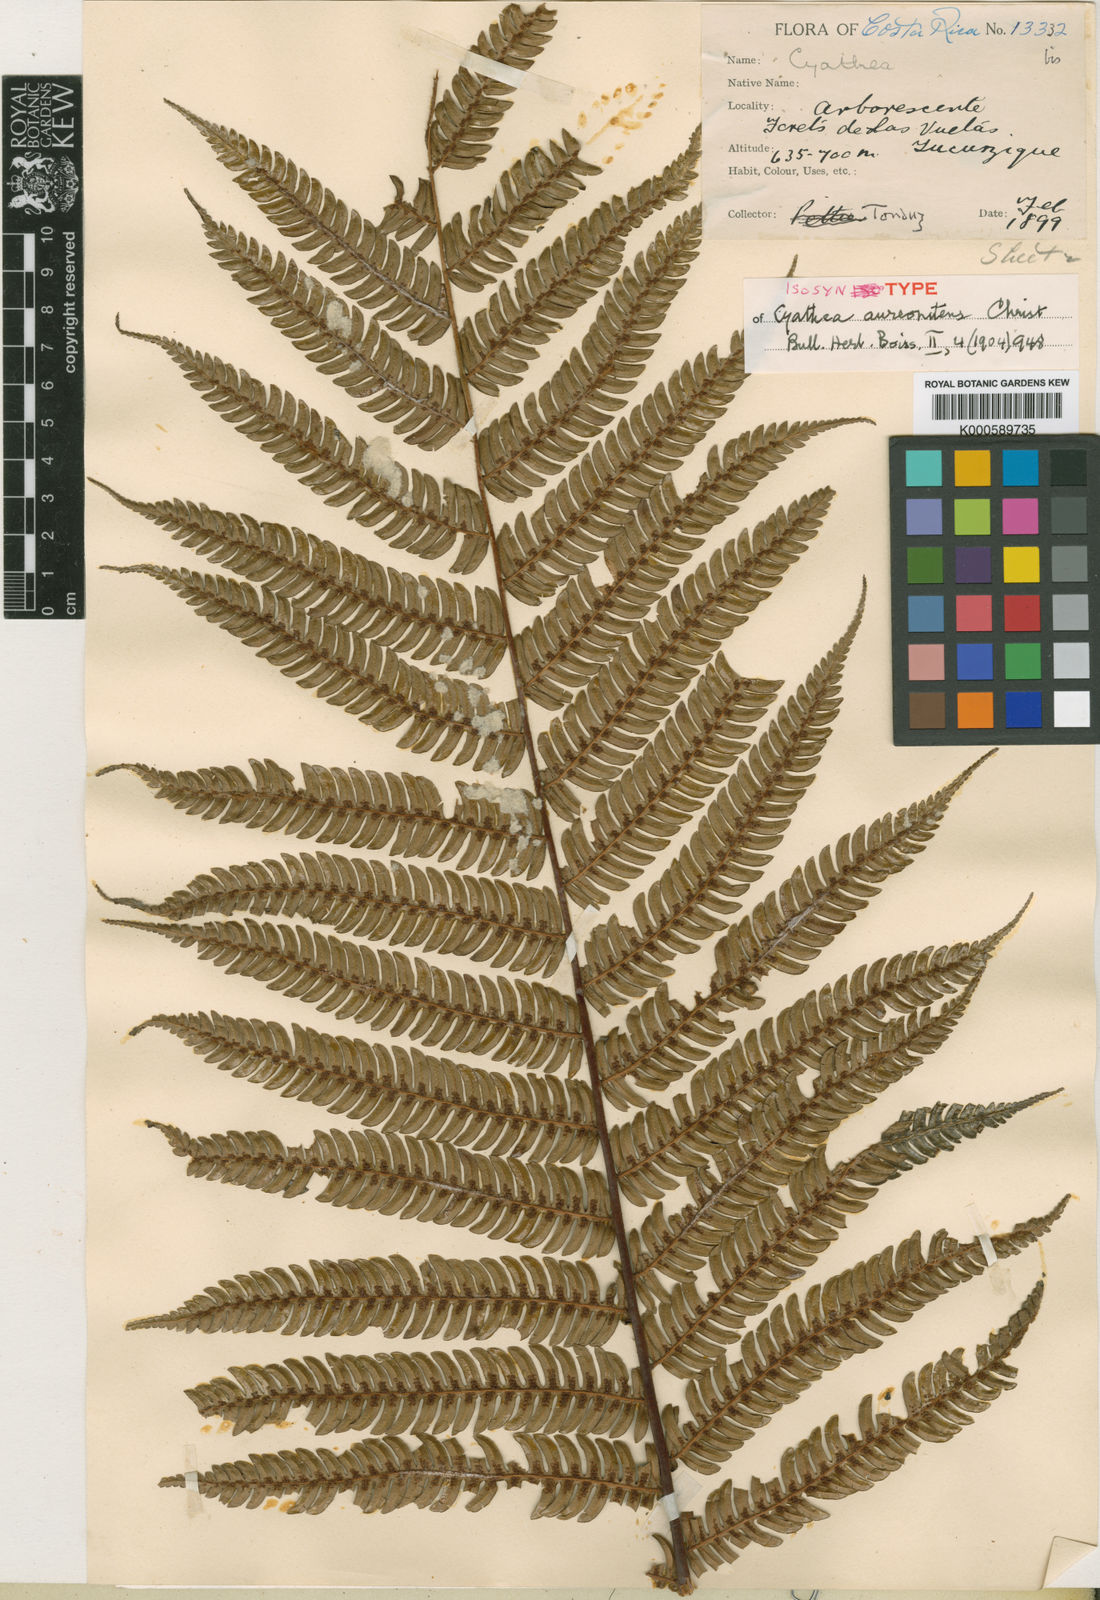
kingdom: Plantae
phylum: Tracheophyta
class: Polypodiopsida
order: Cyatheales
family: Cyatheaceae
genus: Alsophila
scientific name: Alsophila erinacea
